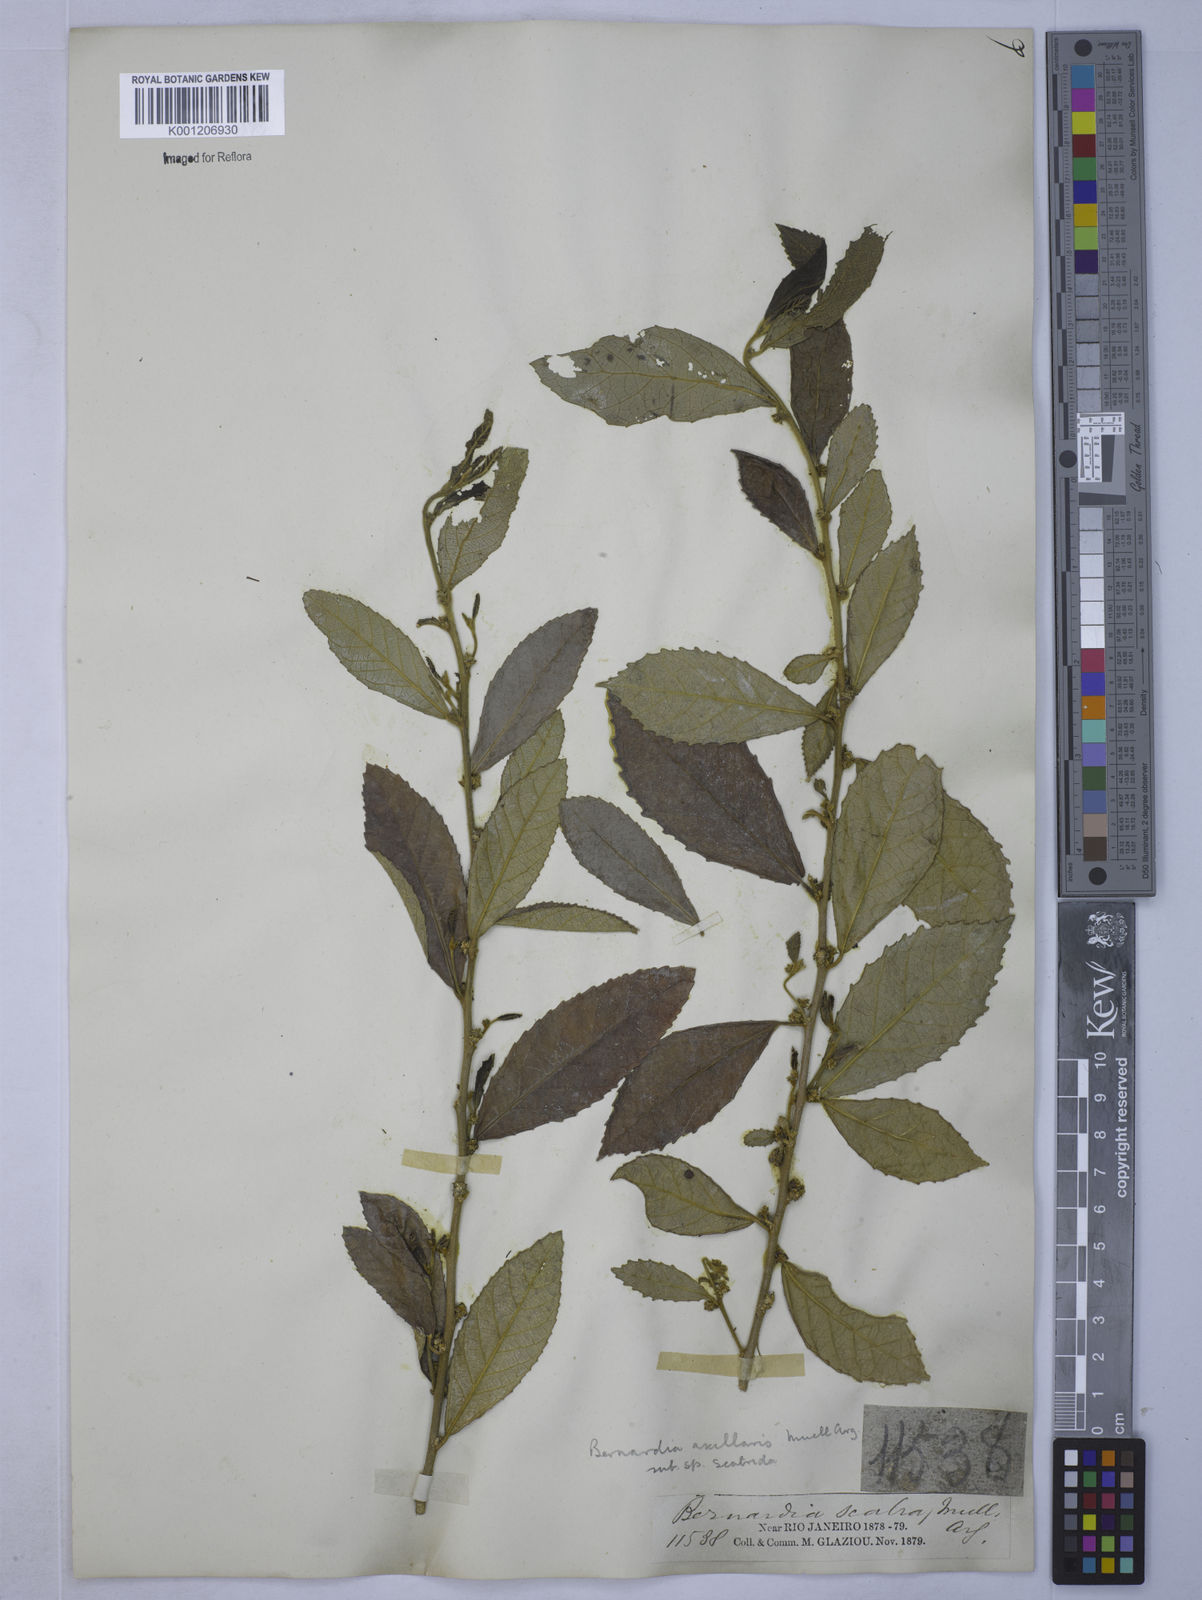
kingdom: Plantae
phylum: Tracheophyta
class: Magnoliopsida
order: Malpighiales
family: Euphorbiaceae
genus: Bernardia
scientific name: Bernardia
